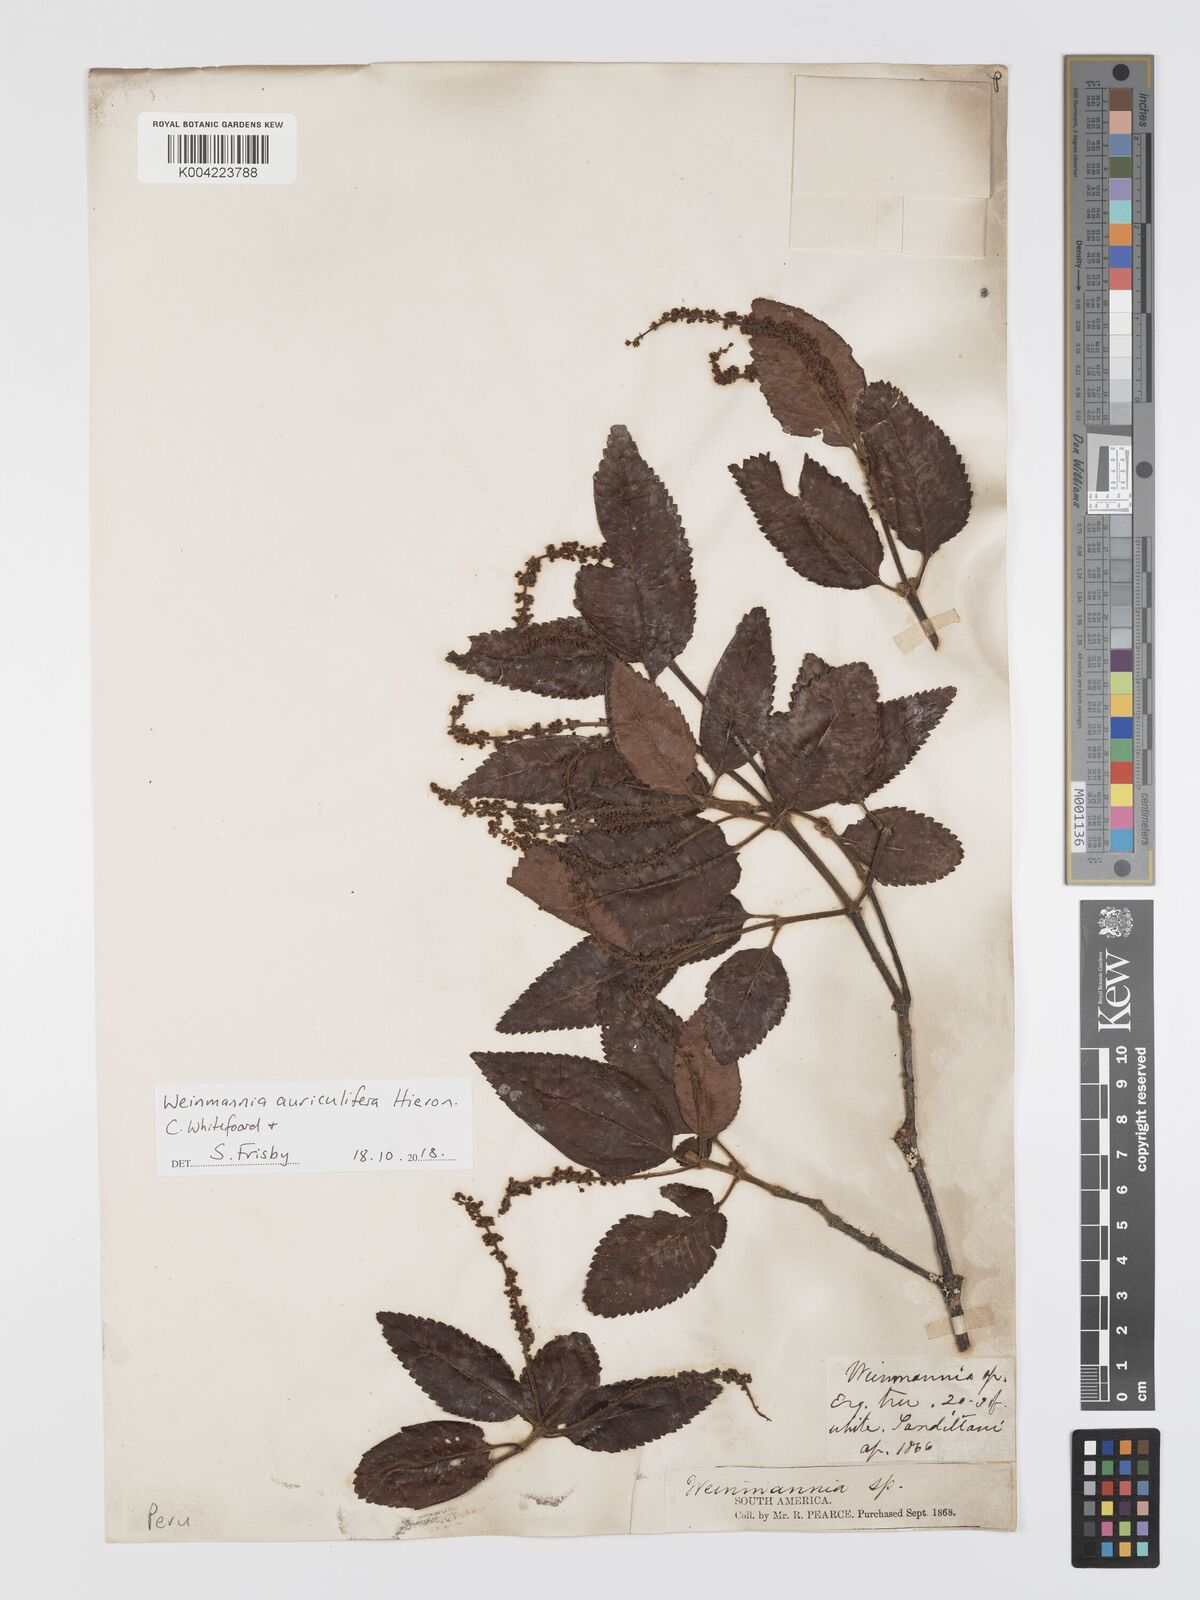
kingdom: Plantae
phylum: Tracheophyta
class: Magnoliopsida
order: Oxalidales
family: Cunoniaceae
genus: Weinmannia
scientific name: Weinmannia cordata
